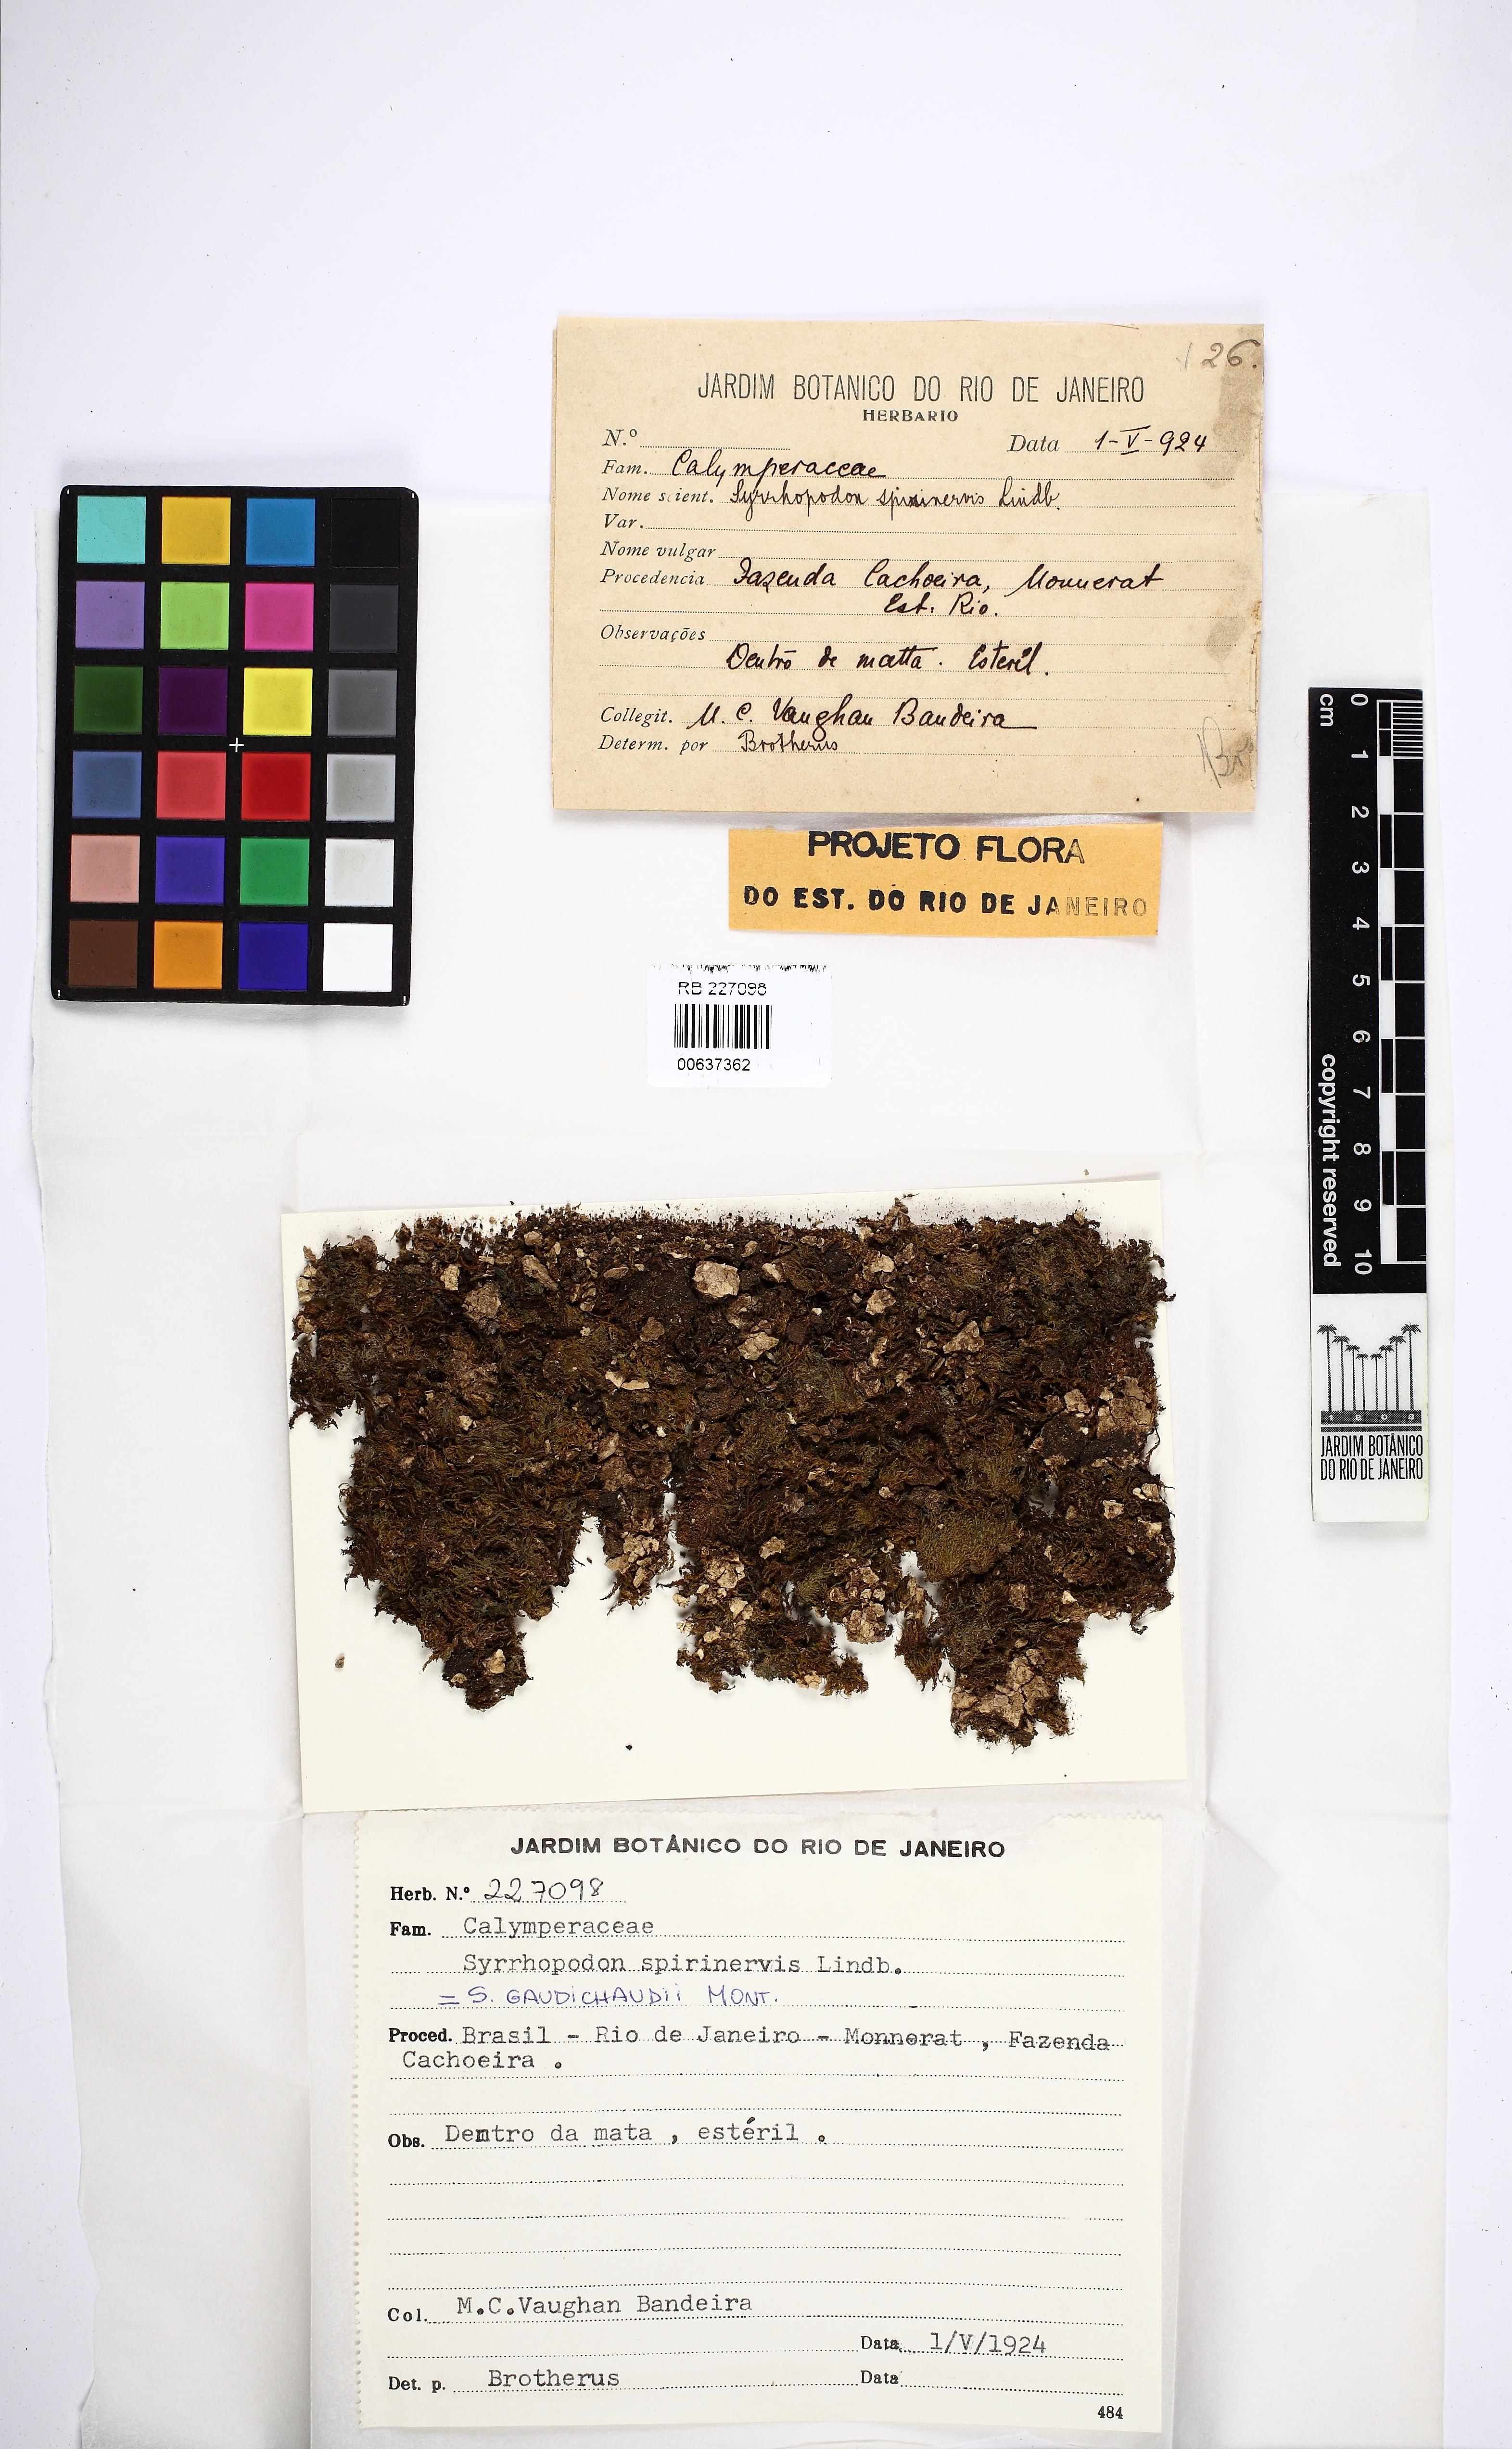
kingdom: Plantae
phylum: Bryophyta
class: Bryopsida
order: Dicranales
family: Calymperaceae
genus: Syrrhopodon
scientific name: Syrrhopodon gaudichaudii
